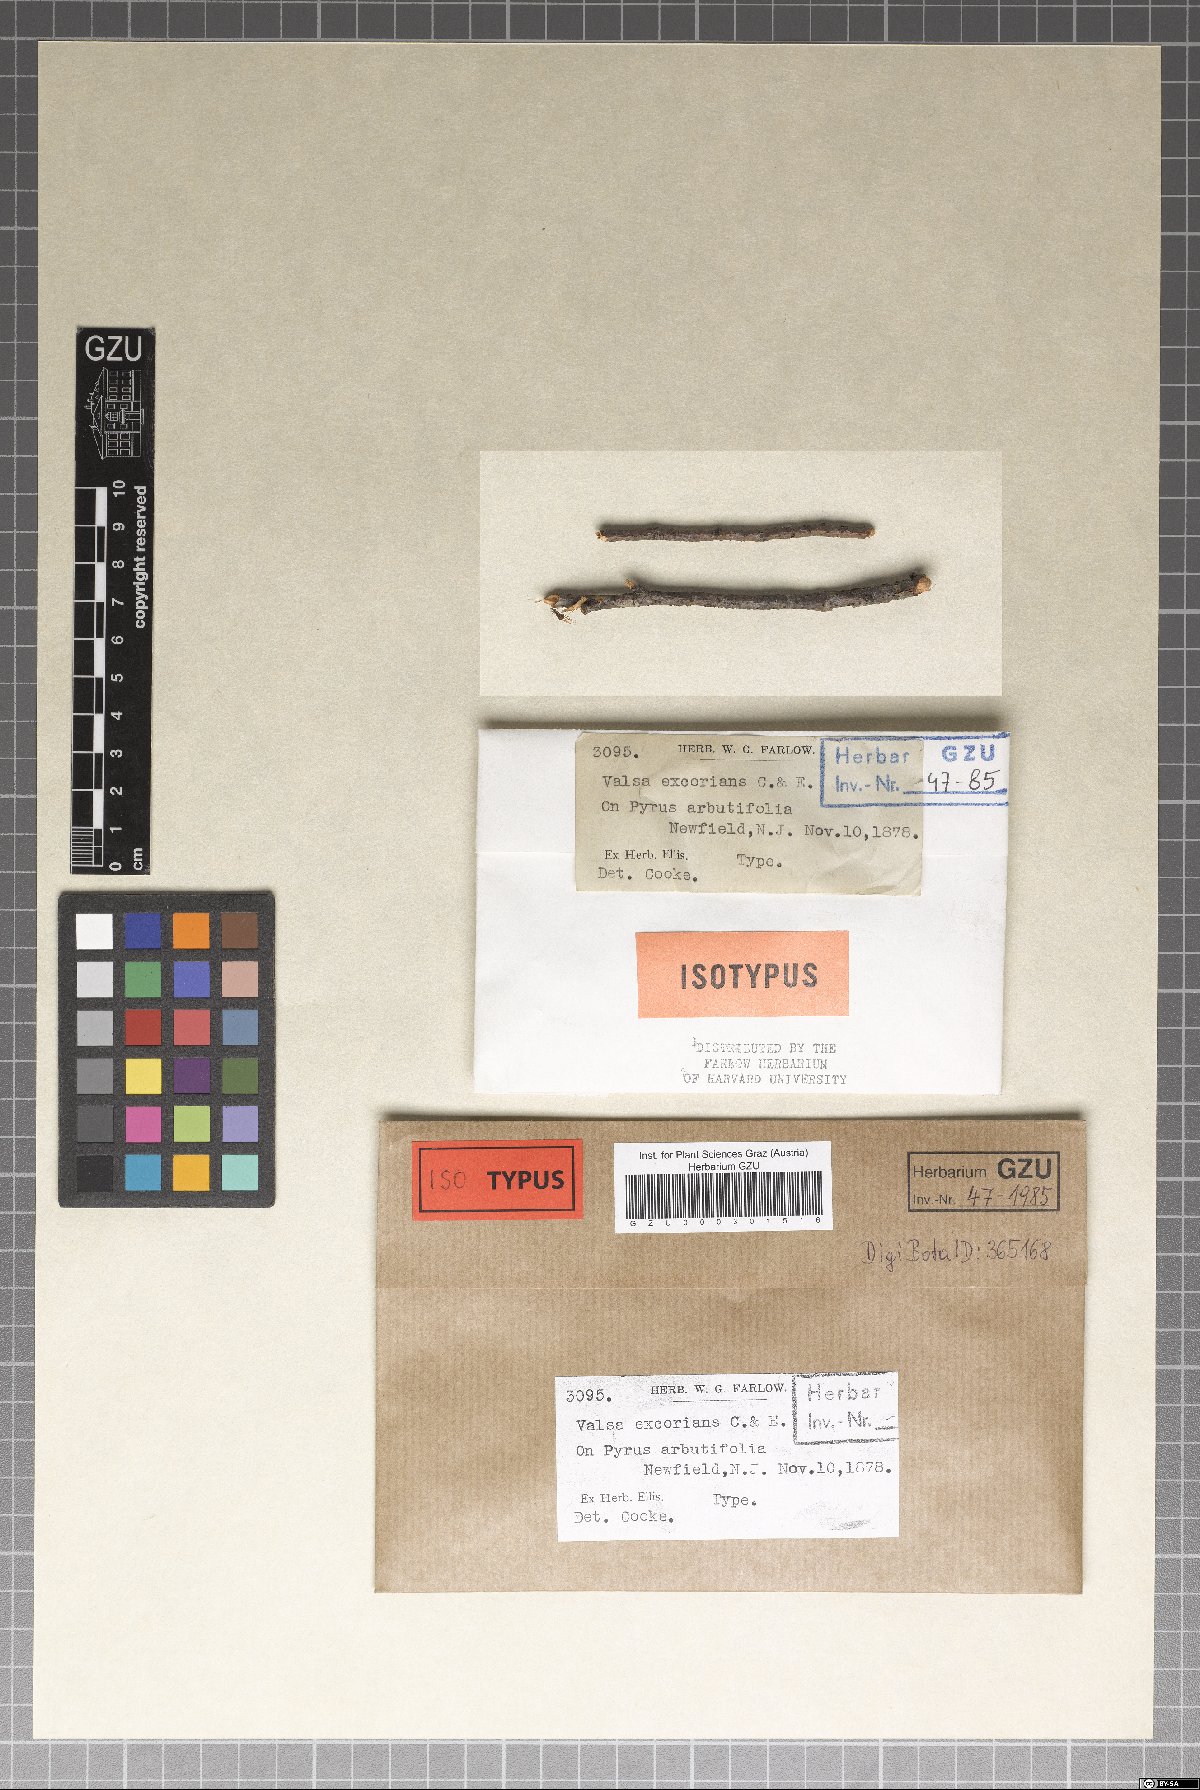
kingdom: Fungi
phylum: Ascomycota
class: Sordariomycetes
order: Diaporthales
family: Valsaceae
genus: Valsa
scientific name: Valsa
